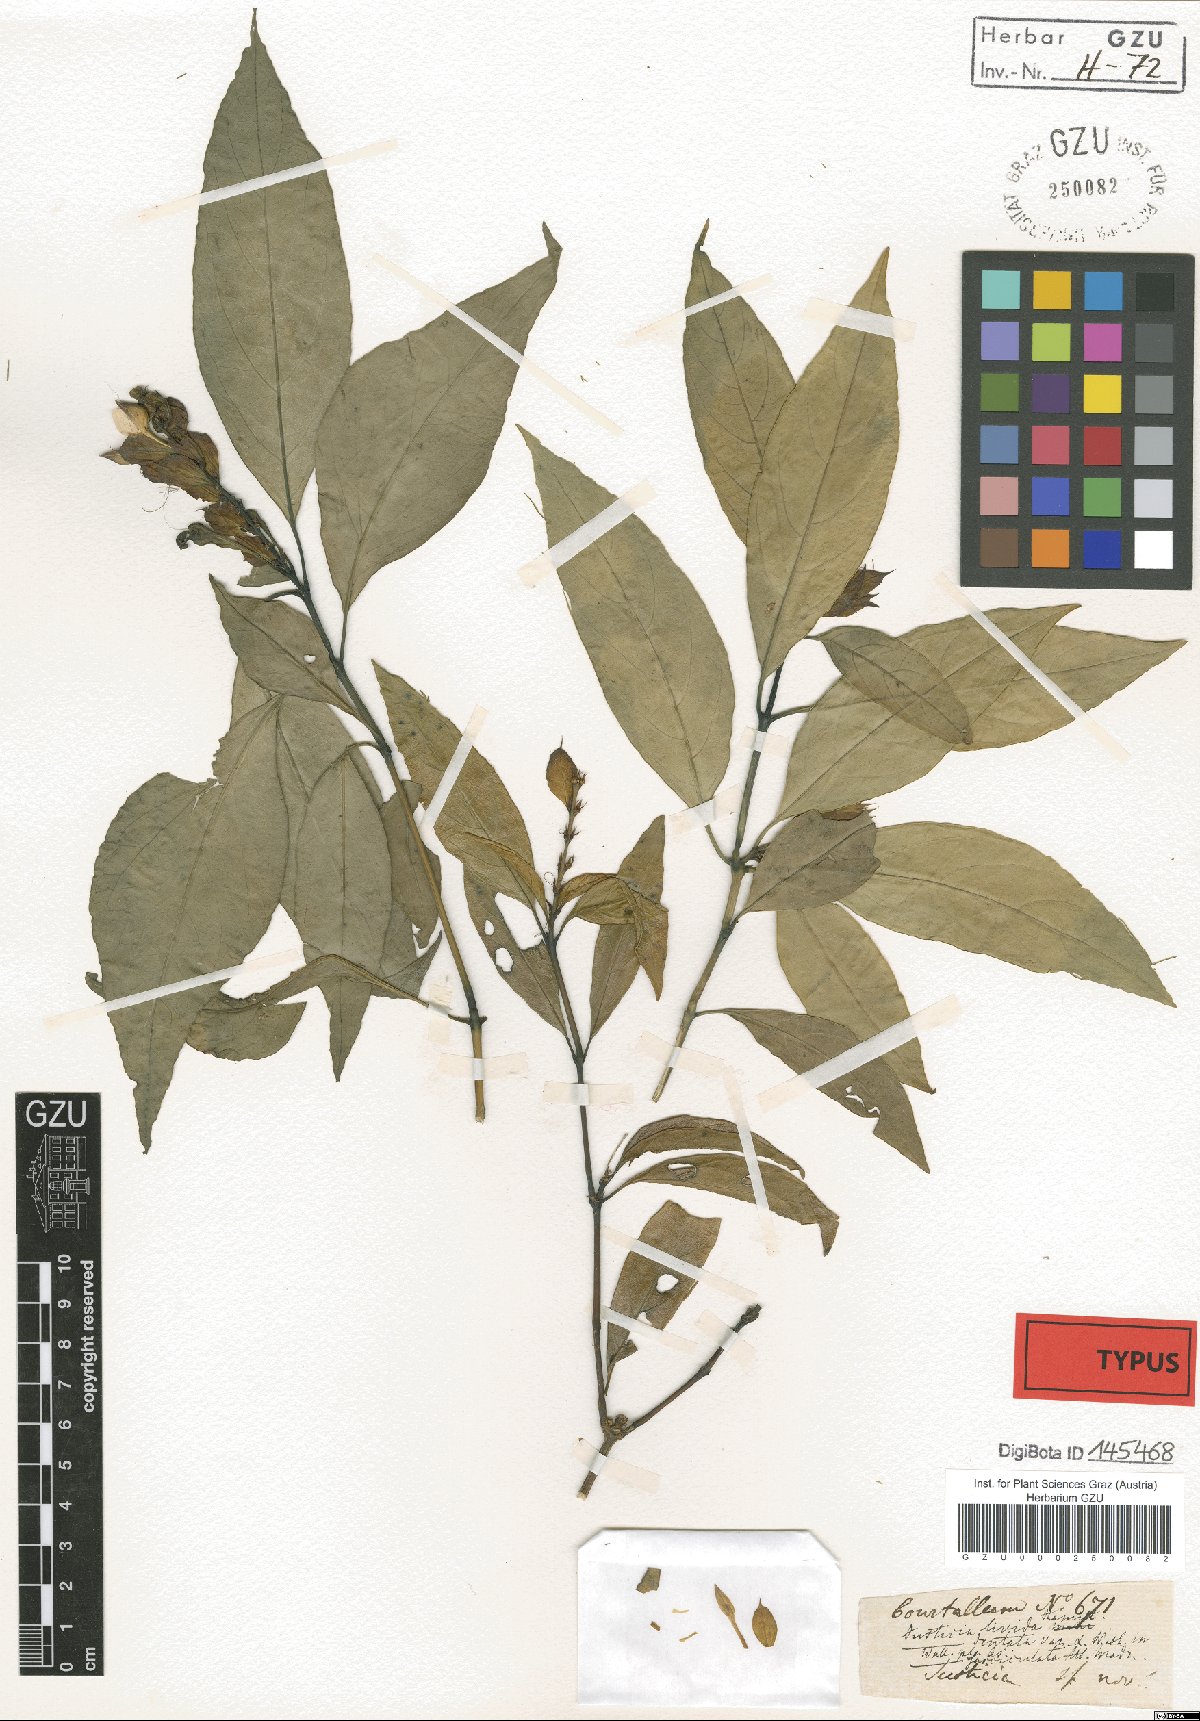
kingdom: Plantae
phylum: Tracheophyta
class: Magnoliopsida
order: Lamiales
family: Acanthaceae
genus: Ecbolium
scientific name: Ecbolium ligustrinum
